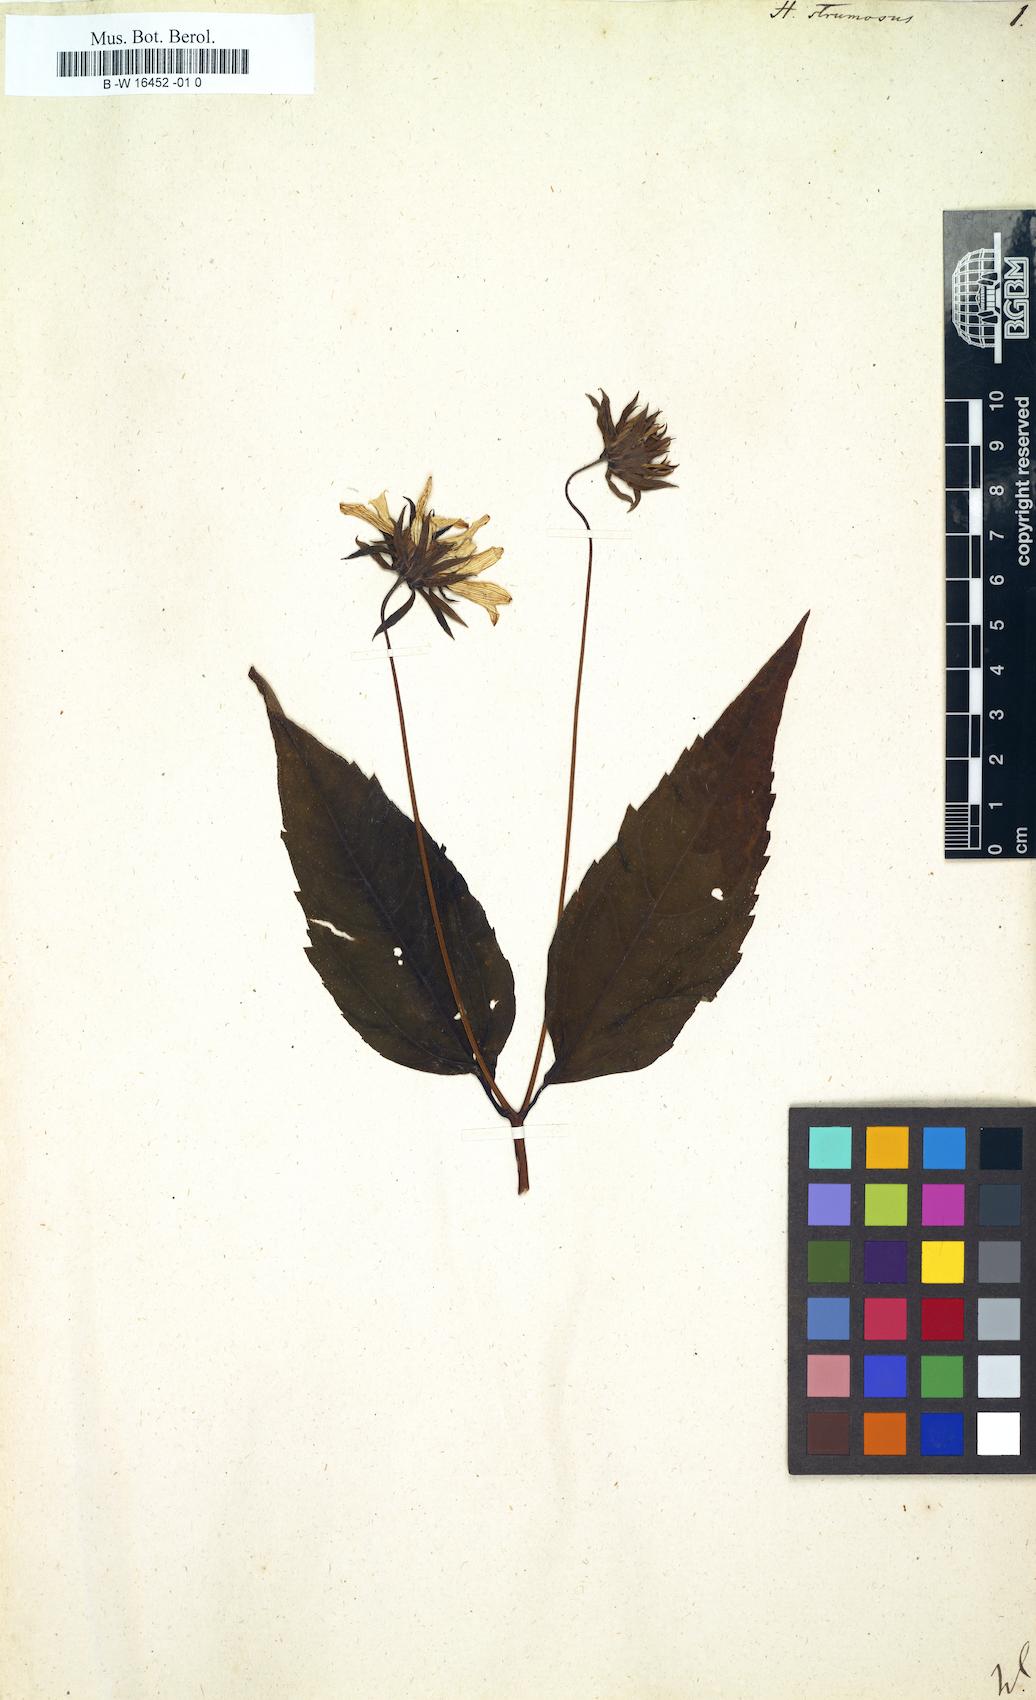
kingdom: Plantae
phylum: Tracheophyta
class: Magnoliopsida
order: Asterales
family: Asteraceae
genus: Helianthus
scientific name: Helianthus strumosus
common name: Pale-leaved sunflower
